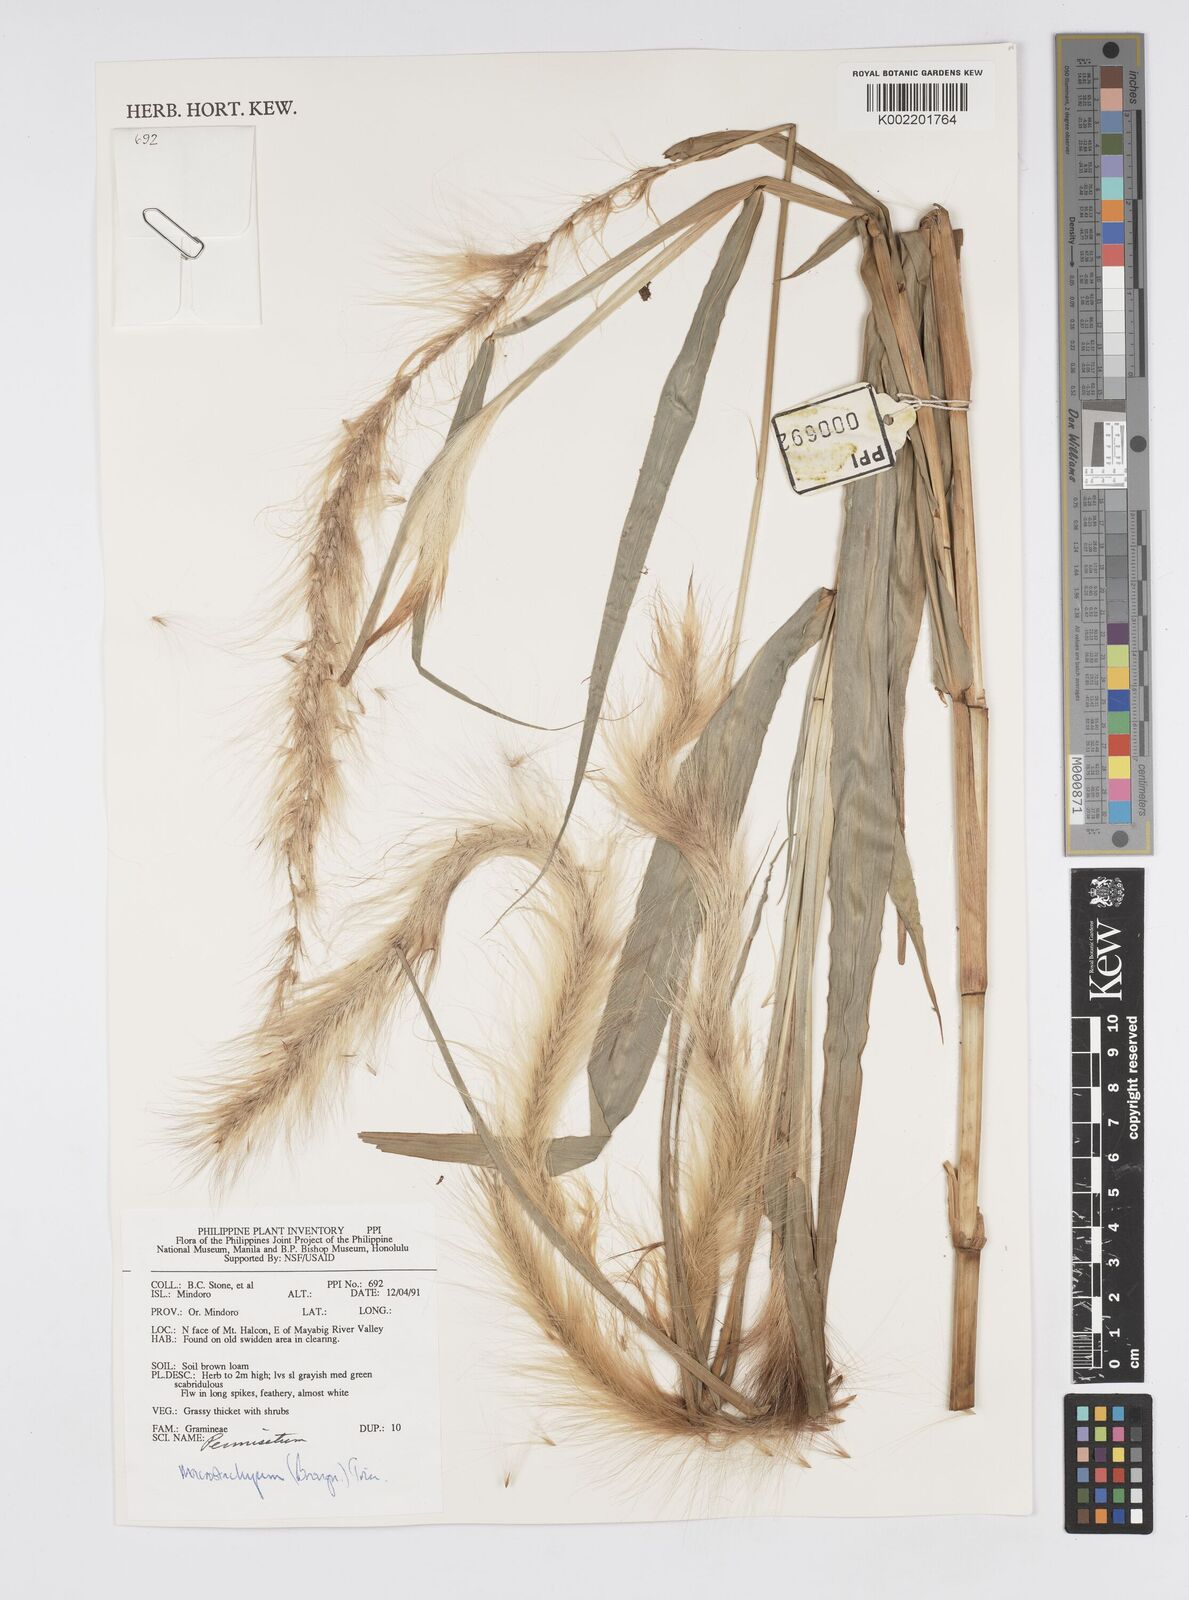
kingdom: Plantae
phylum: Tracheophyta
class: Liliopsida
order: Poales
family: Poaceae
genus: Cenchrus
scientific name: Cenchrus purpureus
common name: Elephant grass
